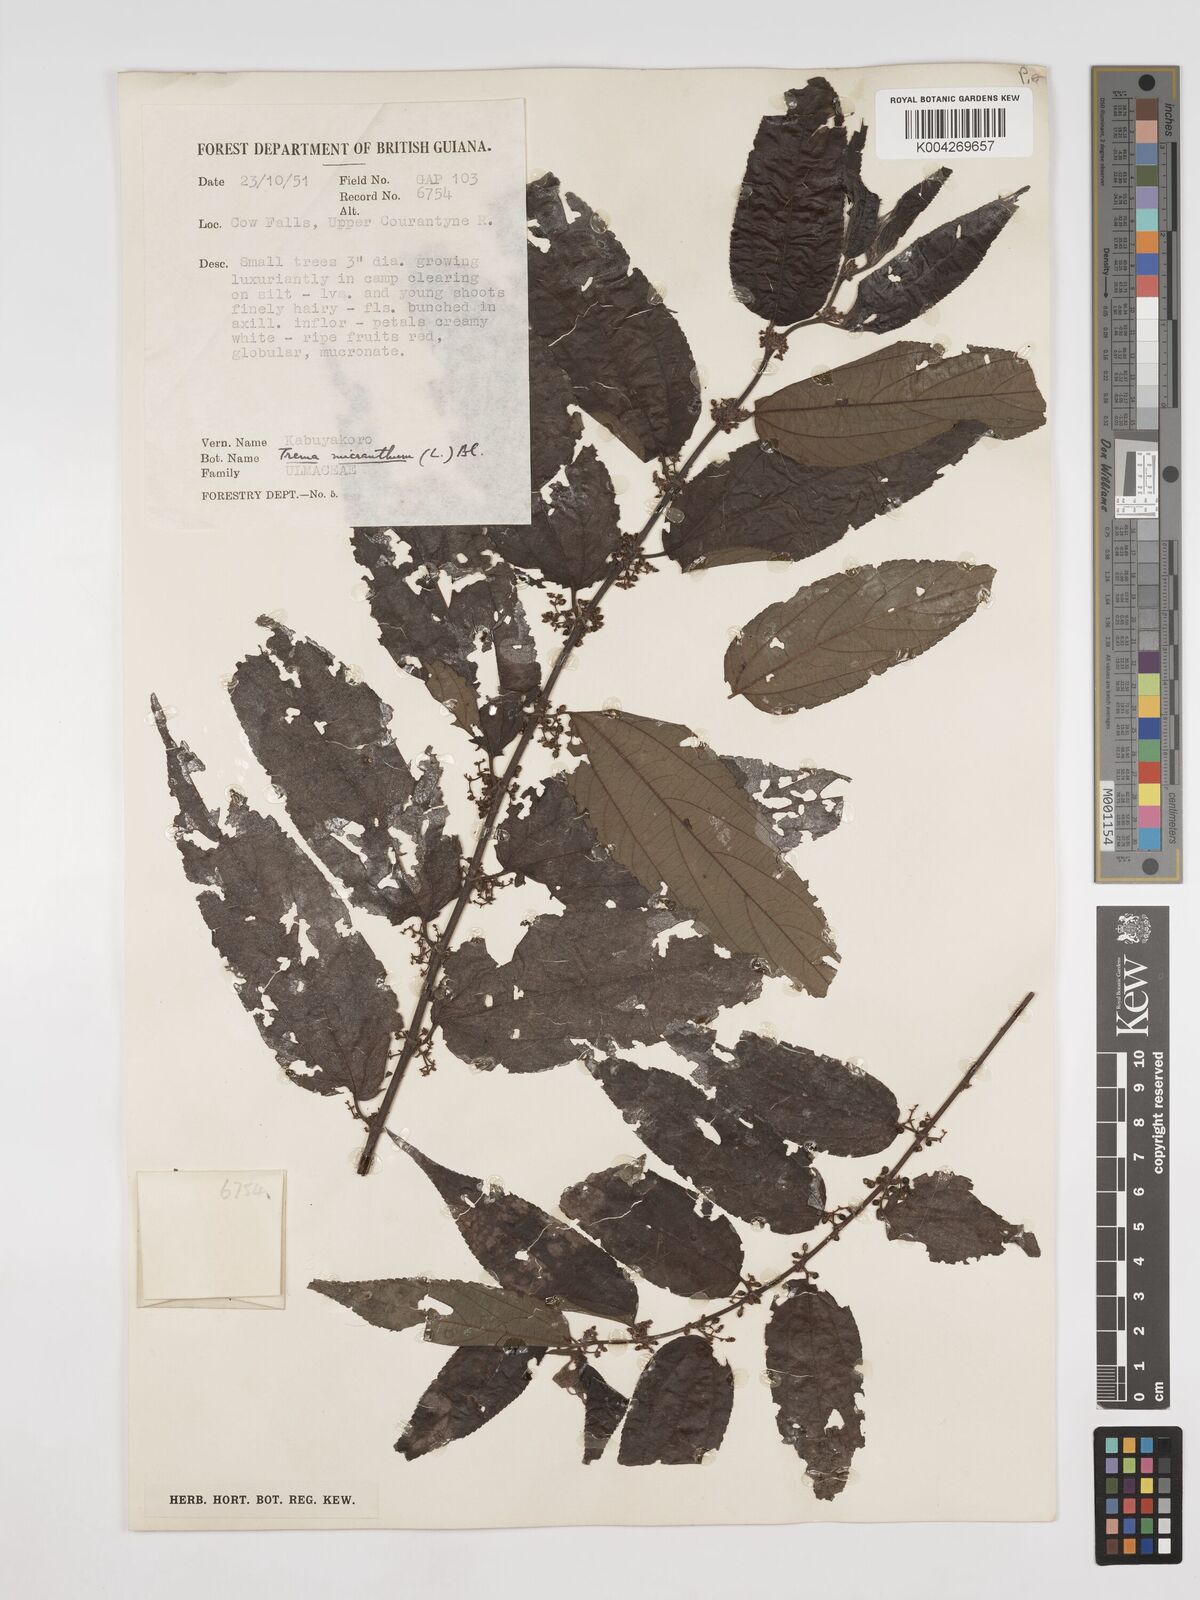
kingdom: Plantae
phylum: Tracheophyta
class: Magnoliopsida
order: Rosales
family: Cannabaceae
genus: Trema
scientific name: Trema micranthum
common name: Jamaican nettletree
